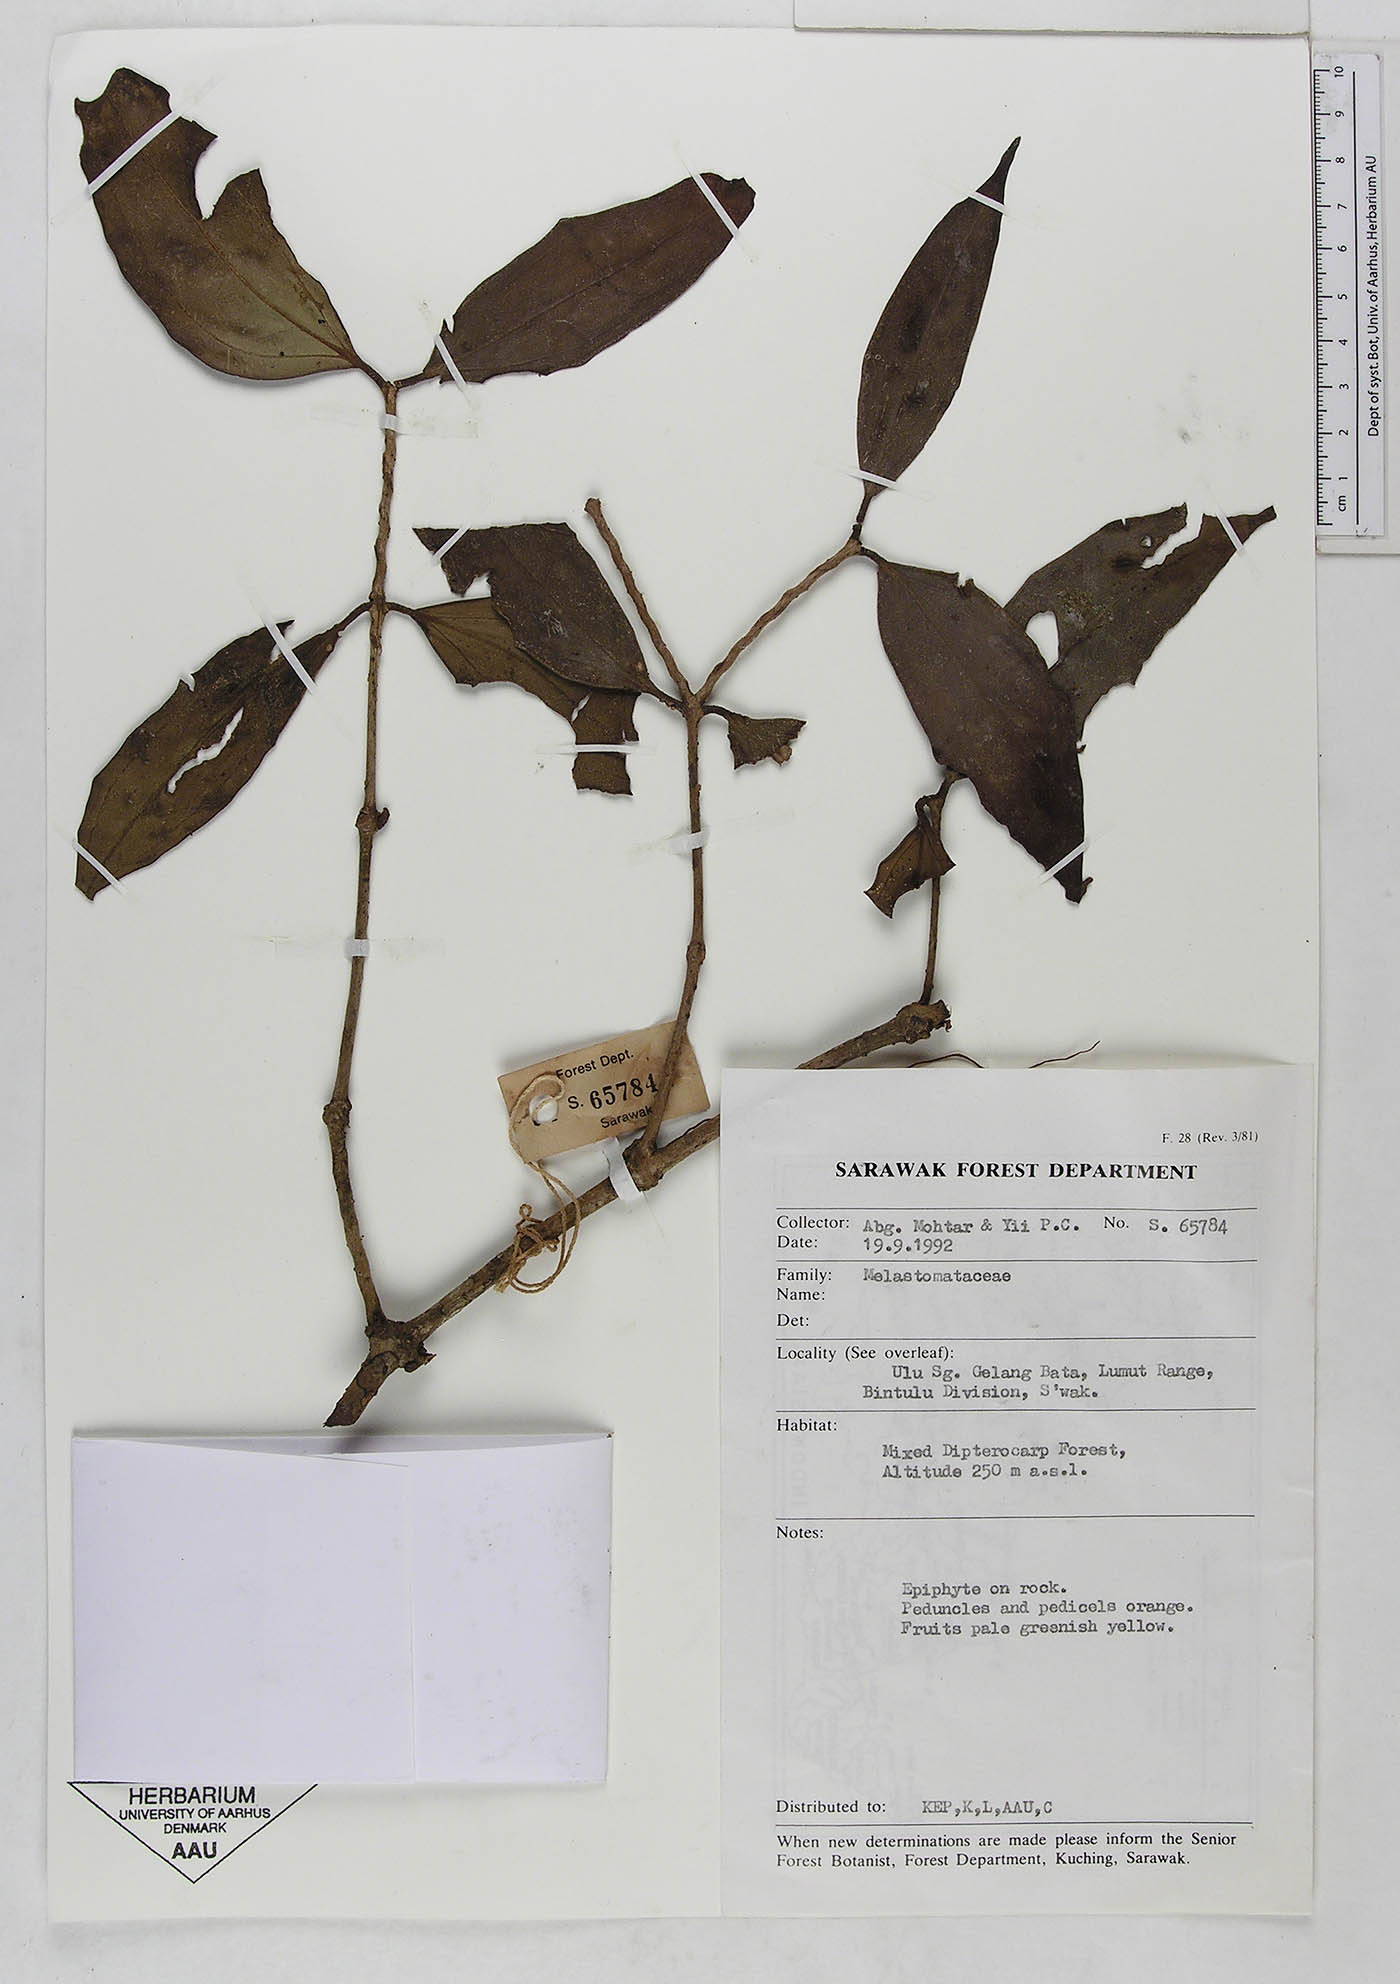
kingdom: Plantae
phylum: Tracheophyta
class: Magnoliopsida
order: Myrtales
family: Melastomataceae
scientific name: Melastomataceae
